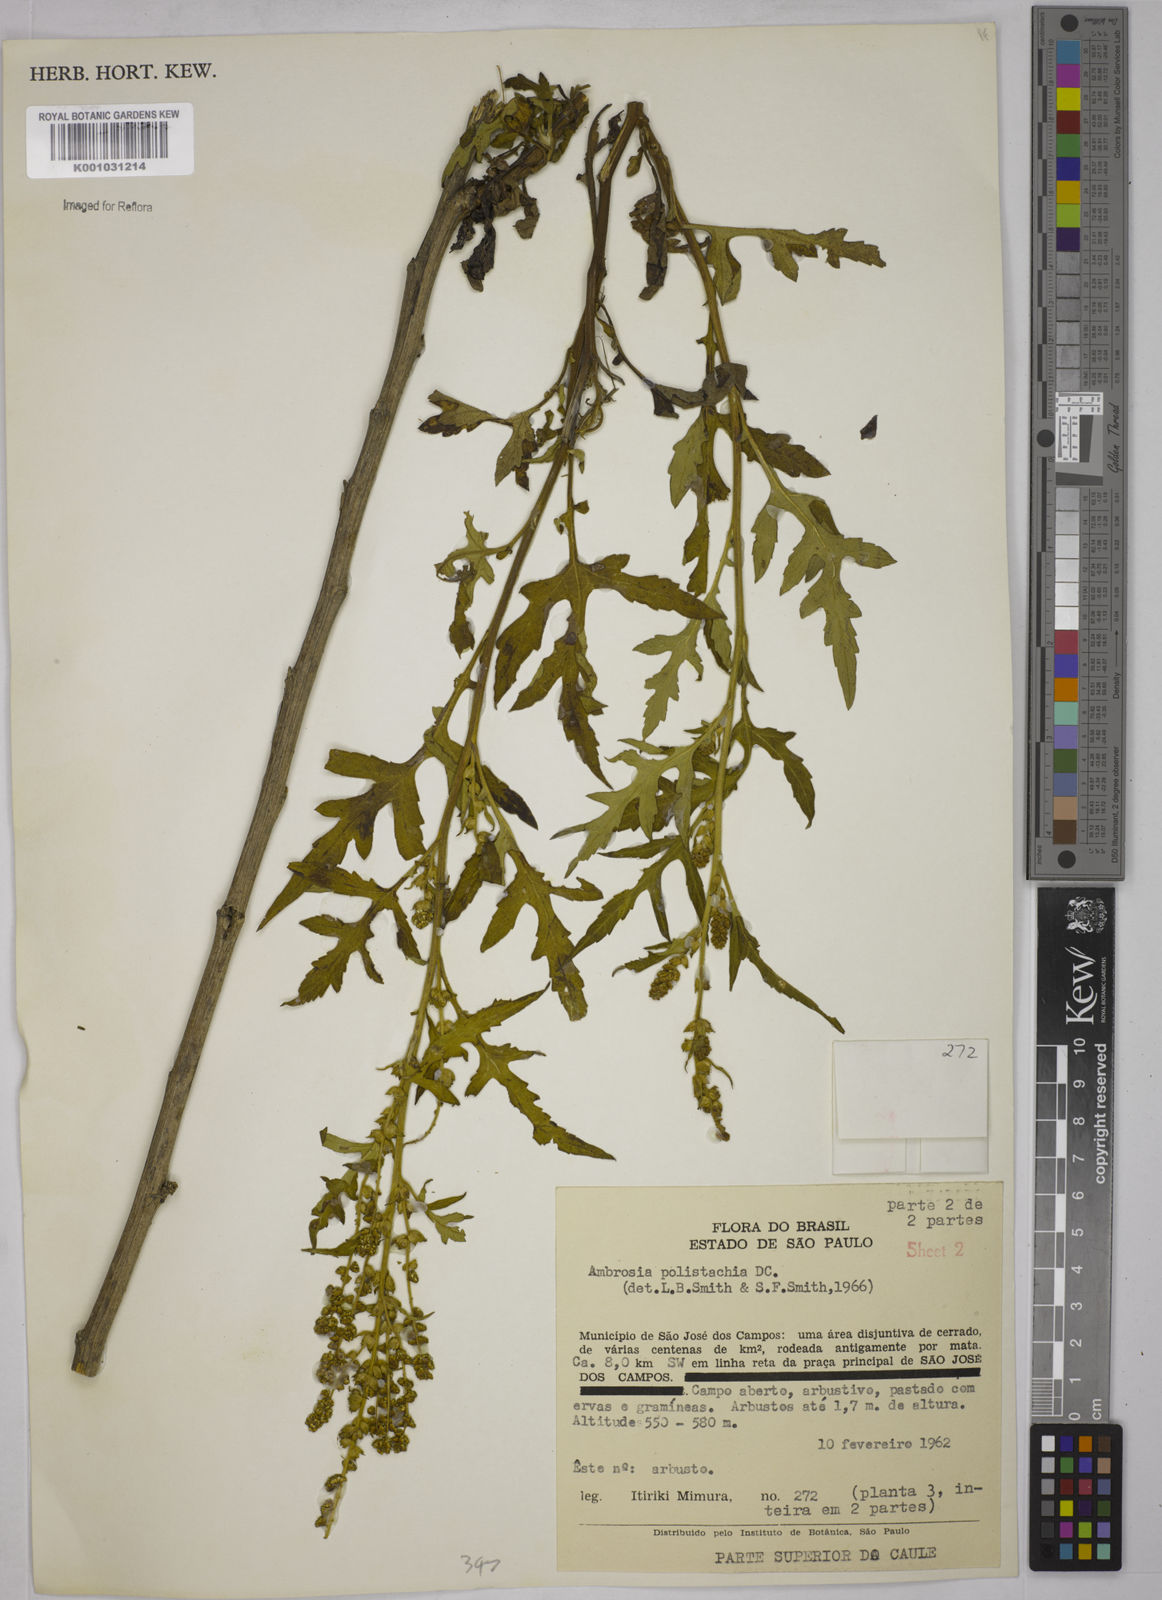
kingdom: Plantae
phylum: Tracheophyta
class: Magnoliopsida
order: Asterales
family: Asteraceae
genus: Ambrosia
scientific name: Ambrosia polystachya
